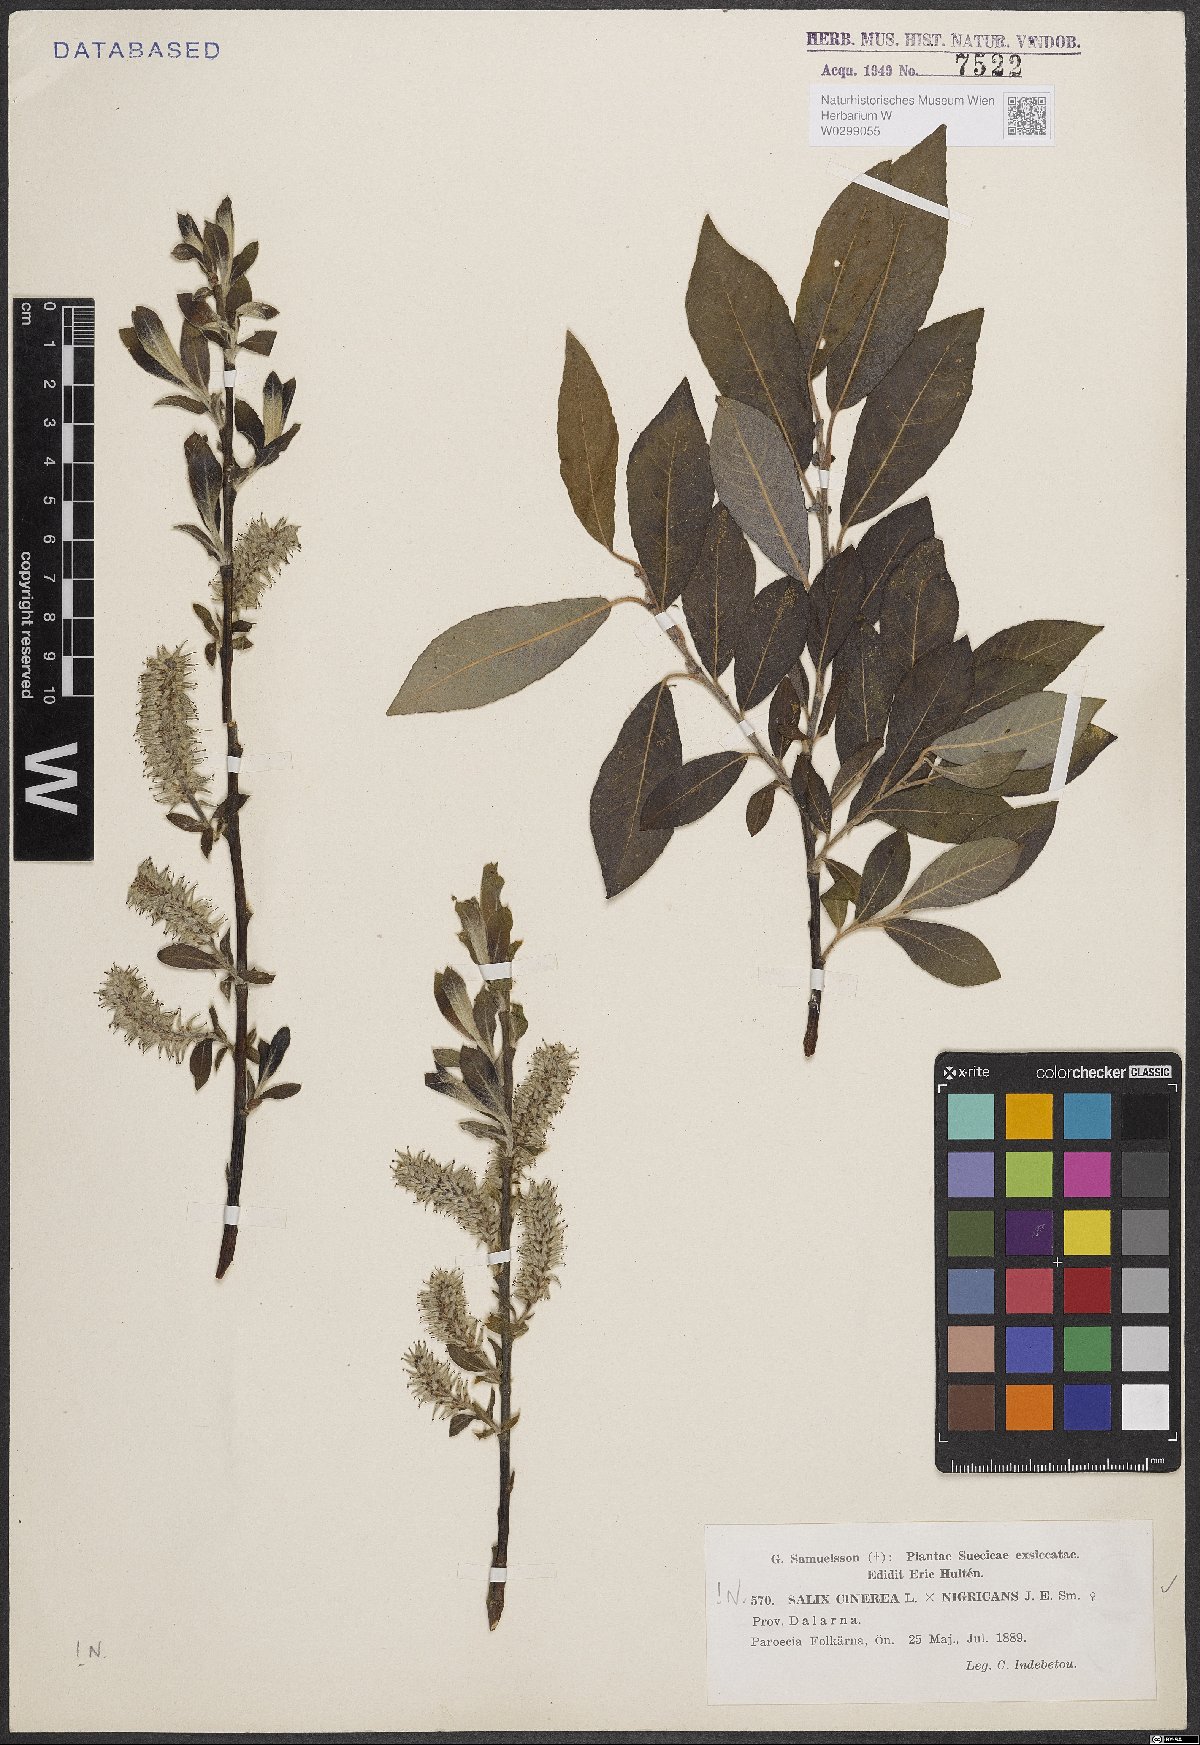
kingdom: Plantae
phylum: Tracheophyta
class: Magnoliopsida
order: Malpighiales
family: Salicaceae
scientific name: Salicaceae
